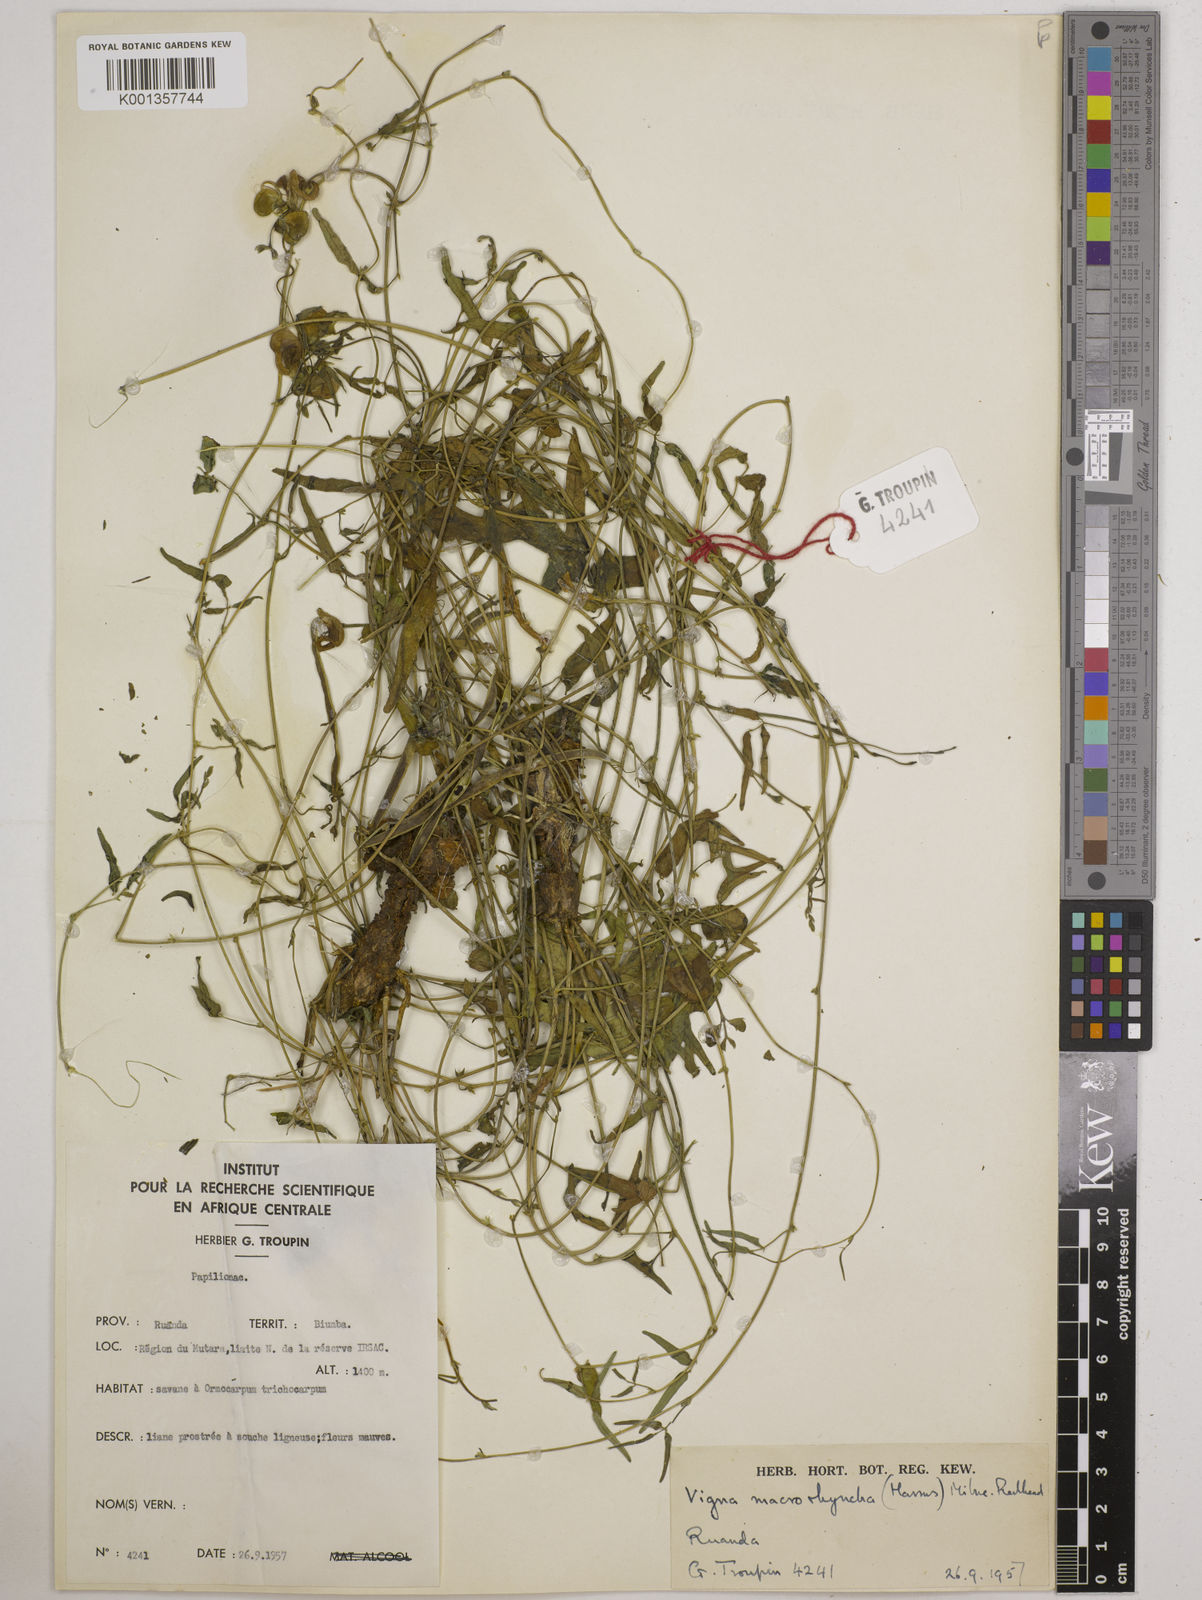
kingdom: Plantae
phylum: Tracheophyta
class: Magnoliopsida
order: Fabales
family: Fabaceae
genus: Wajira
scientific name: Wajira grahamiana
